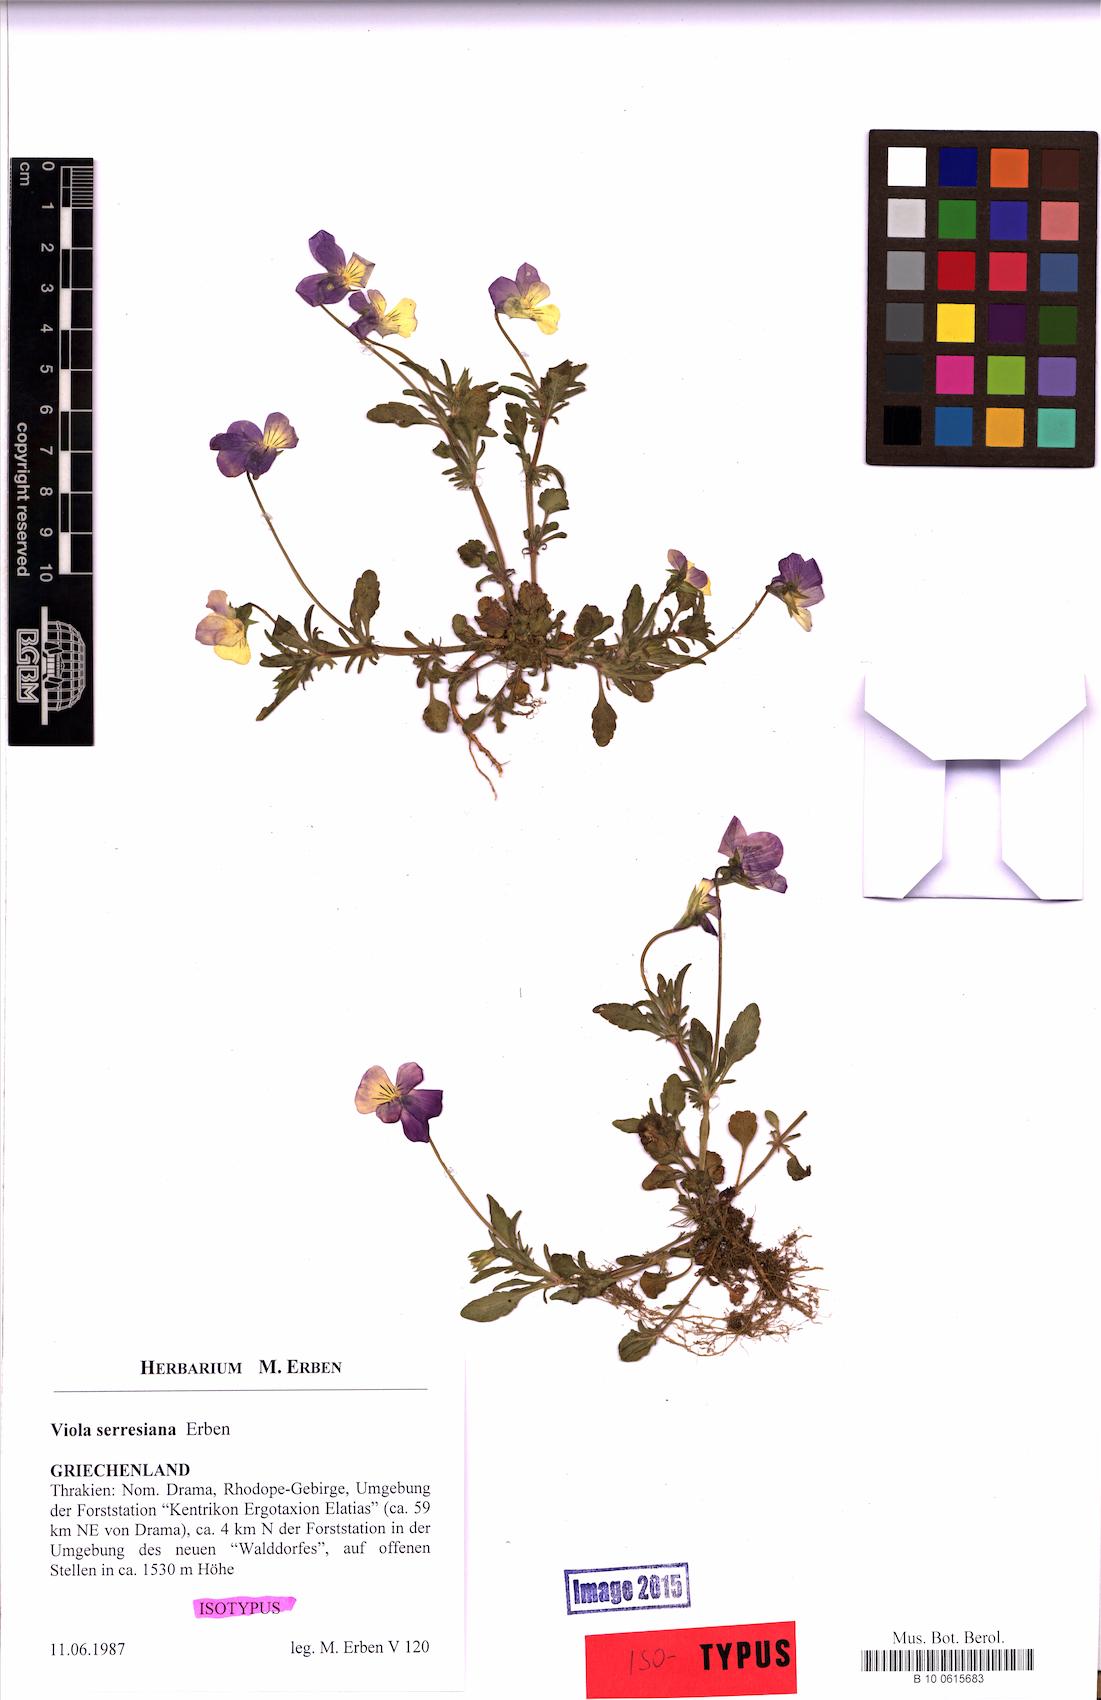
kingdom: Plantae
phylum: Tracheophyta
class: Magnoliopsida
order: Malpighiales
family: Violaceae
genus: Viola
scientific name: Viola serresiana
